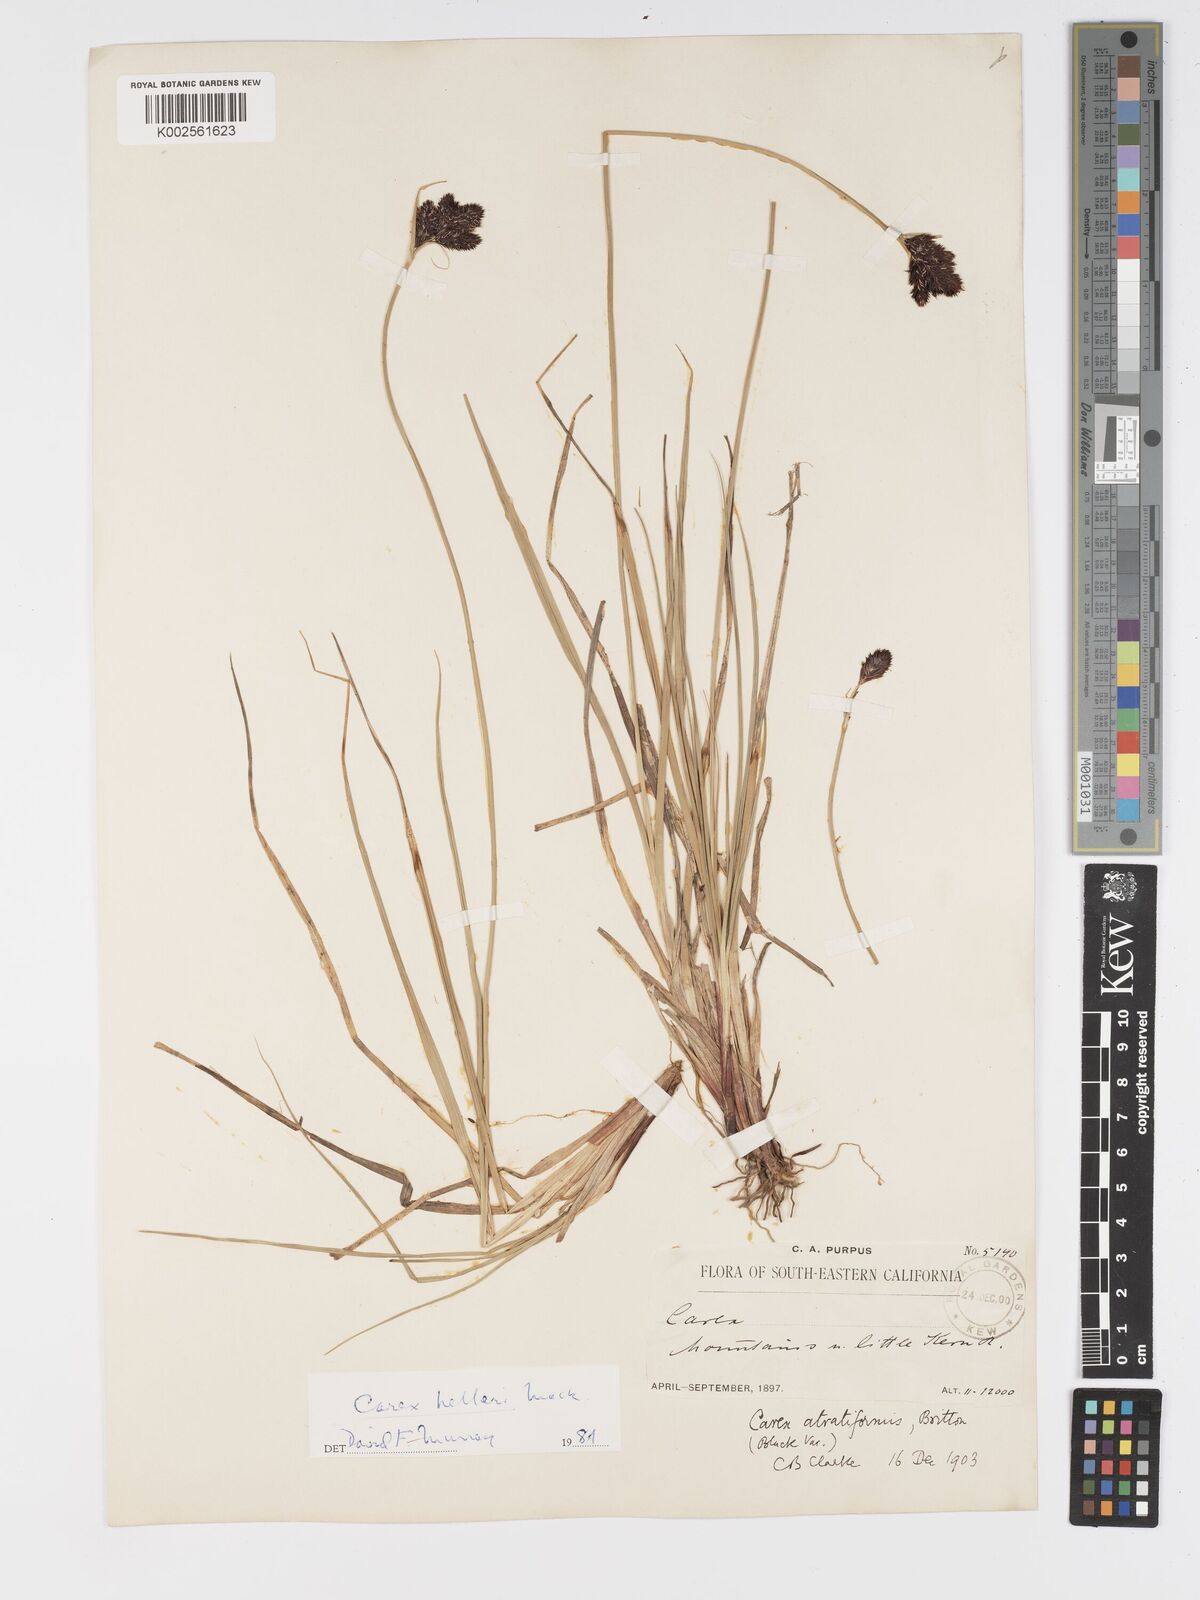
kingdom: Plantae
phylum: Tracheophyta
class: Liliopsida
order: Poales
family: Cyperaceae
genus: Carex
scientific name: Carex helleri
